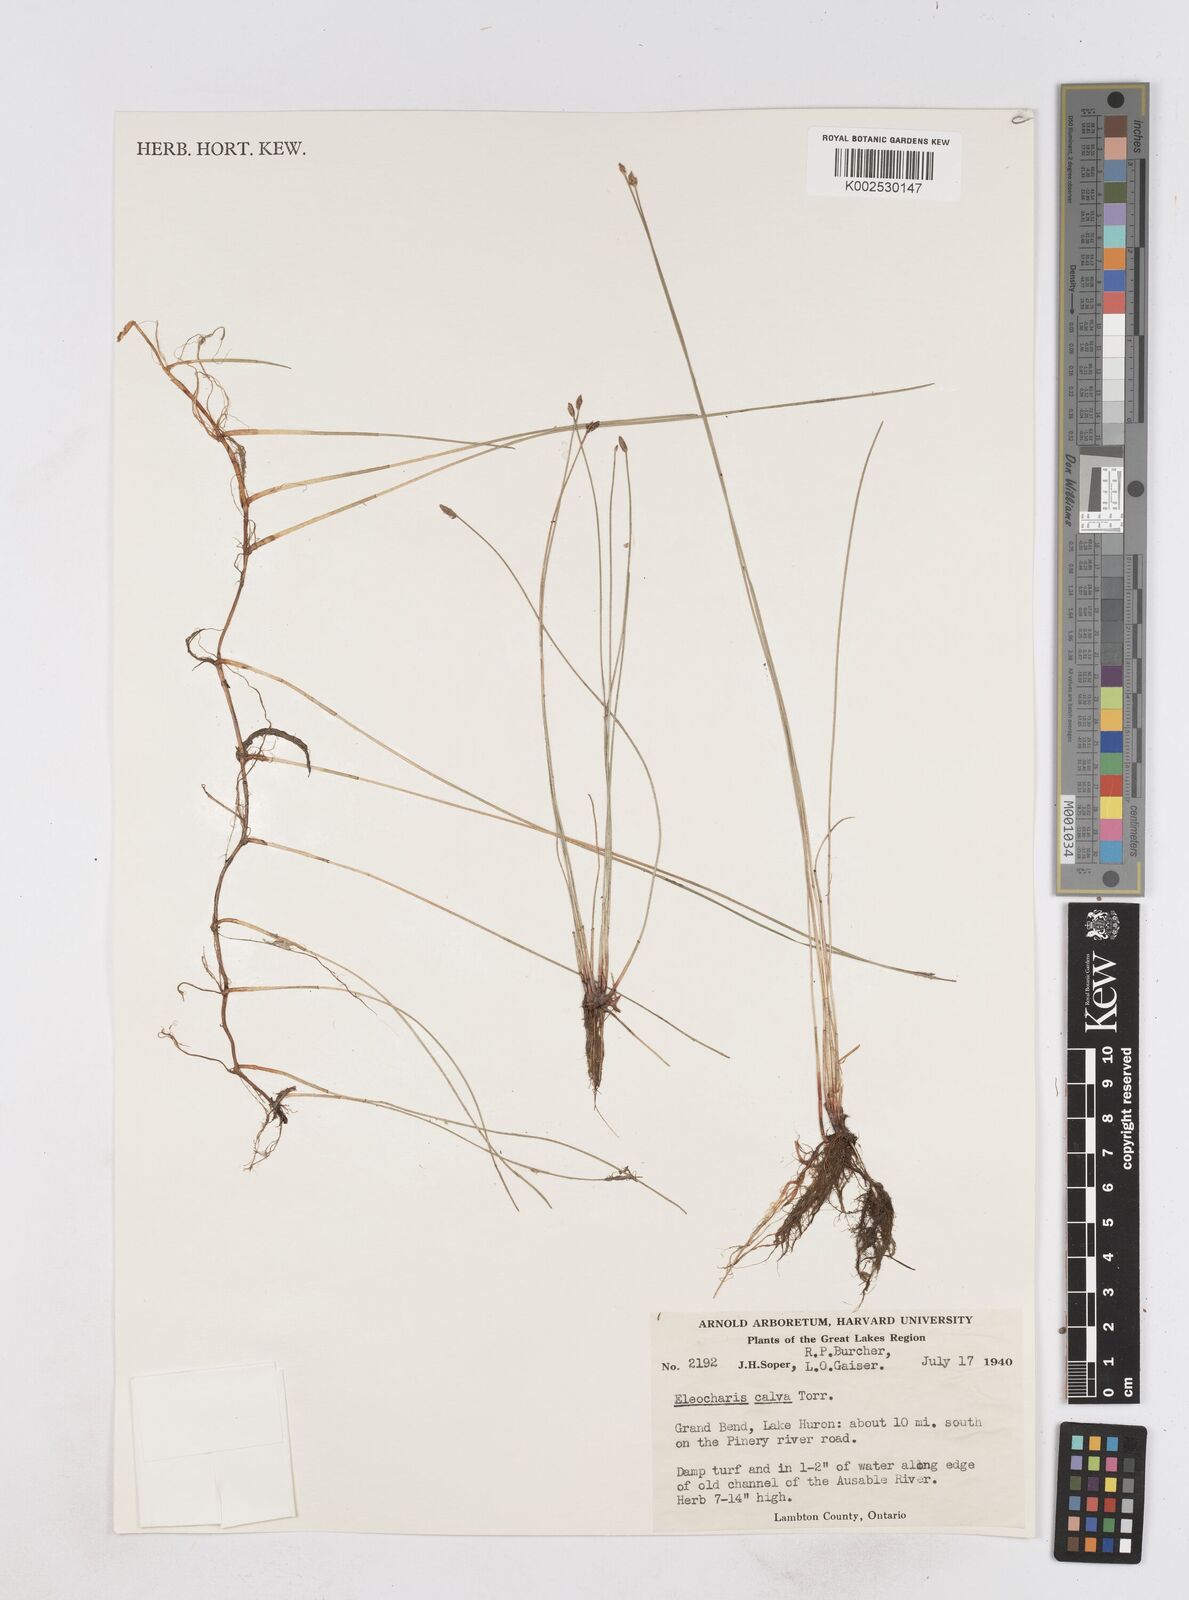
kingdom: Plantae
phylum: Tracheophyta
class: Liliopsida
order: Poales
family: Cyperaceae
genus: Eleocharis
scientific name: Eleocharis erythropoda
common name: Bald spikerush
